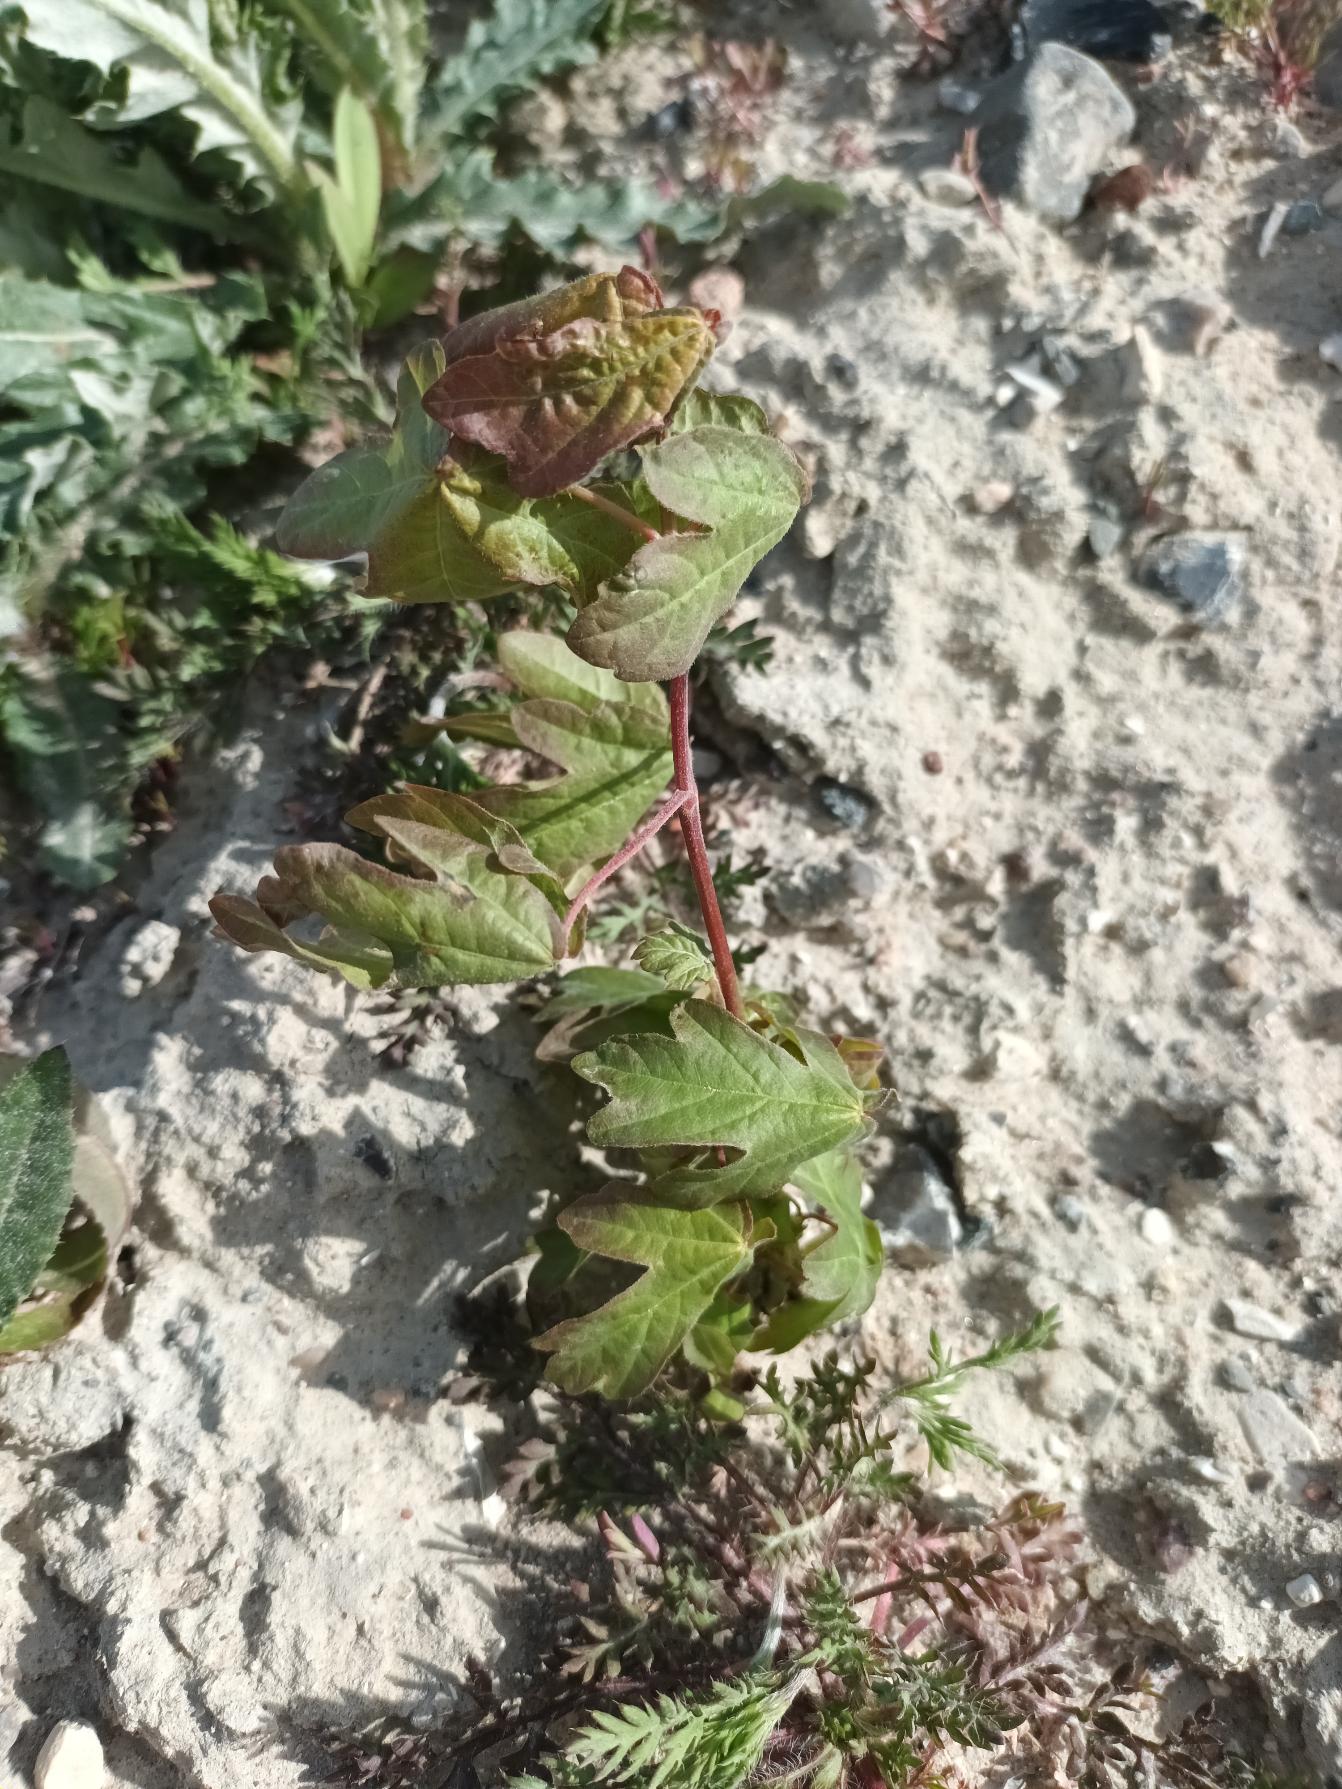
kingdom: Plantae
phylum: Tracheophyta
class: Magnoliopsida
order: Sapindales
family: Sapindaceae
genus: Acer
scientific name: Acer campestre
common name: Navr
